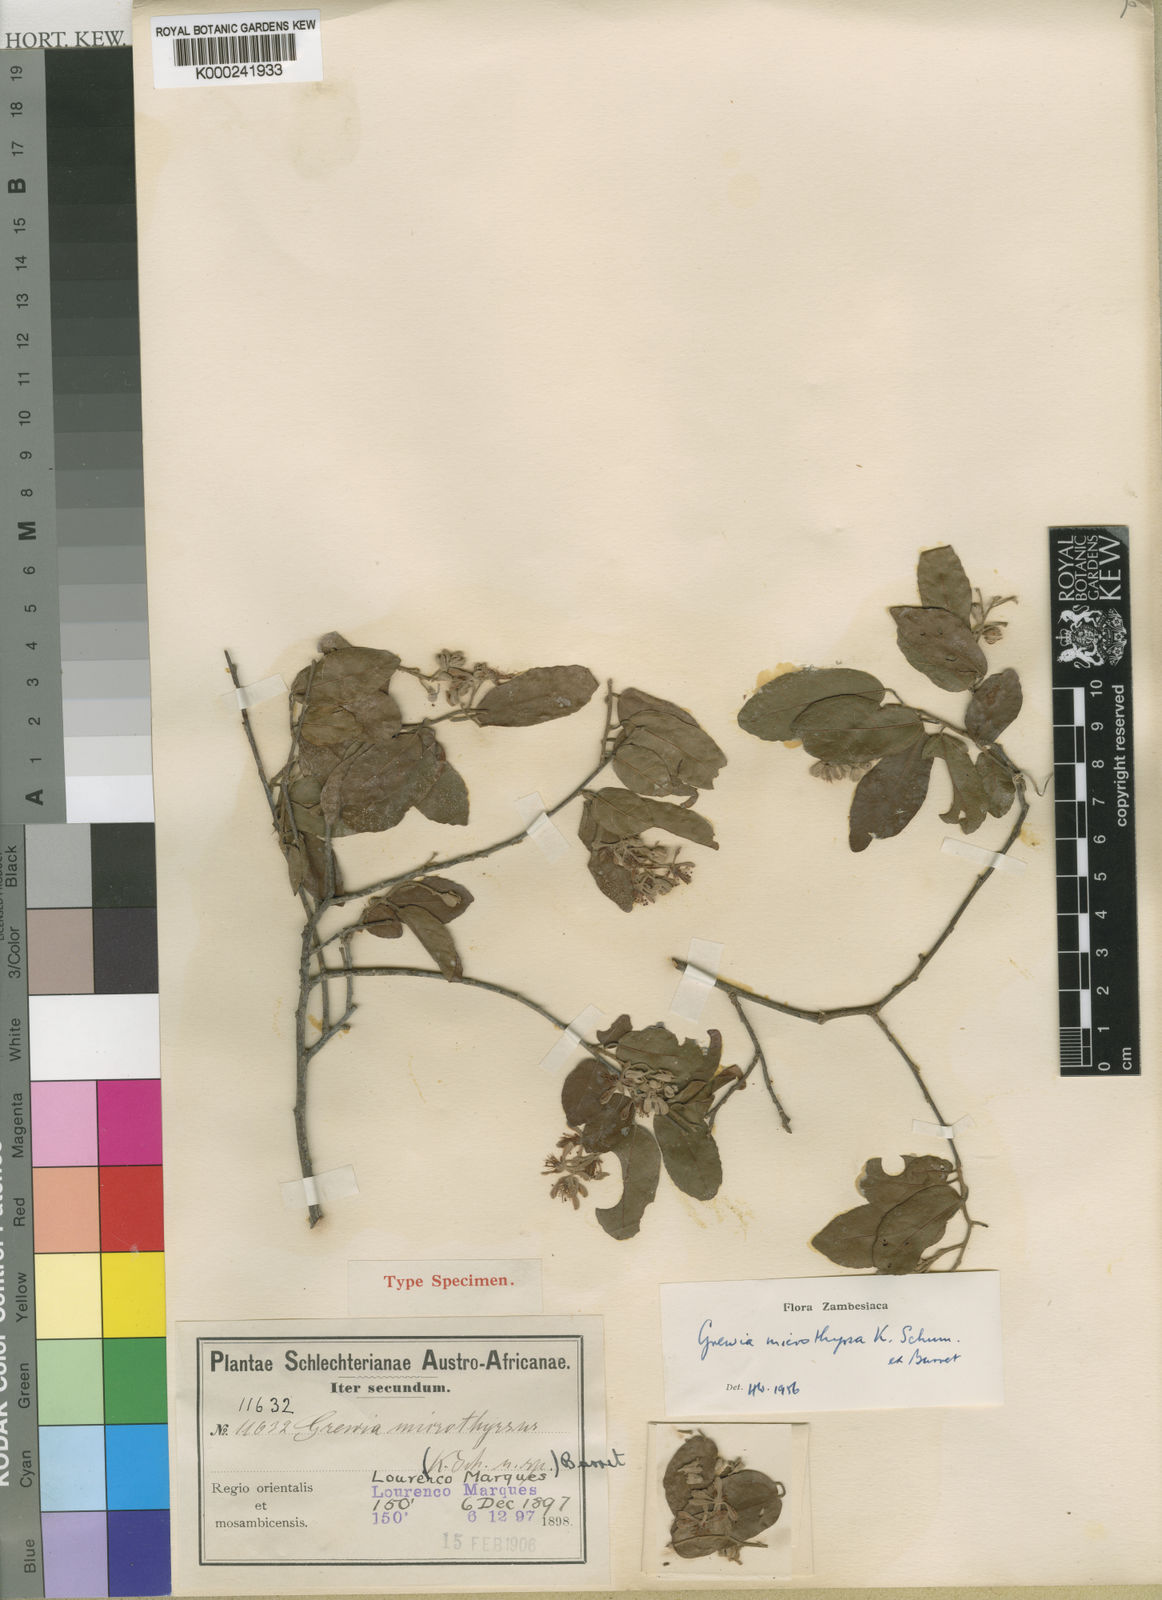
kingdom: Plantae
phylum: Tracheophyta
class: Magnoliopsida
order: Malvales
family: Malvaceae
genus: Microcos
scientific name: Microcos microthyrsa
